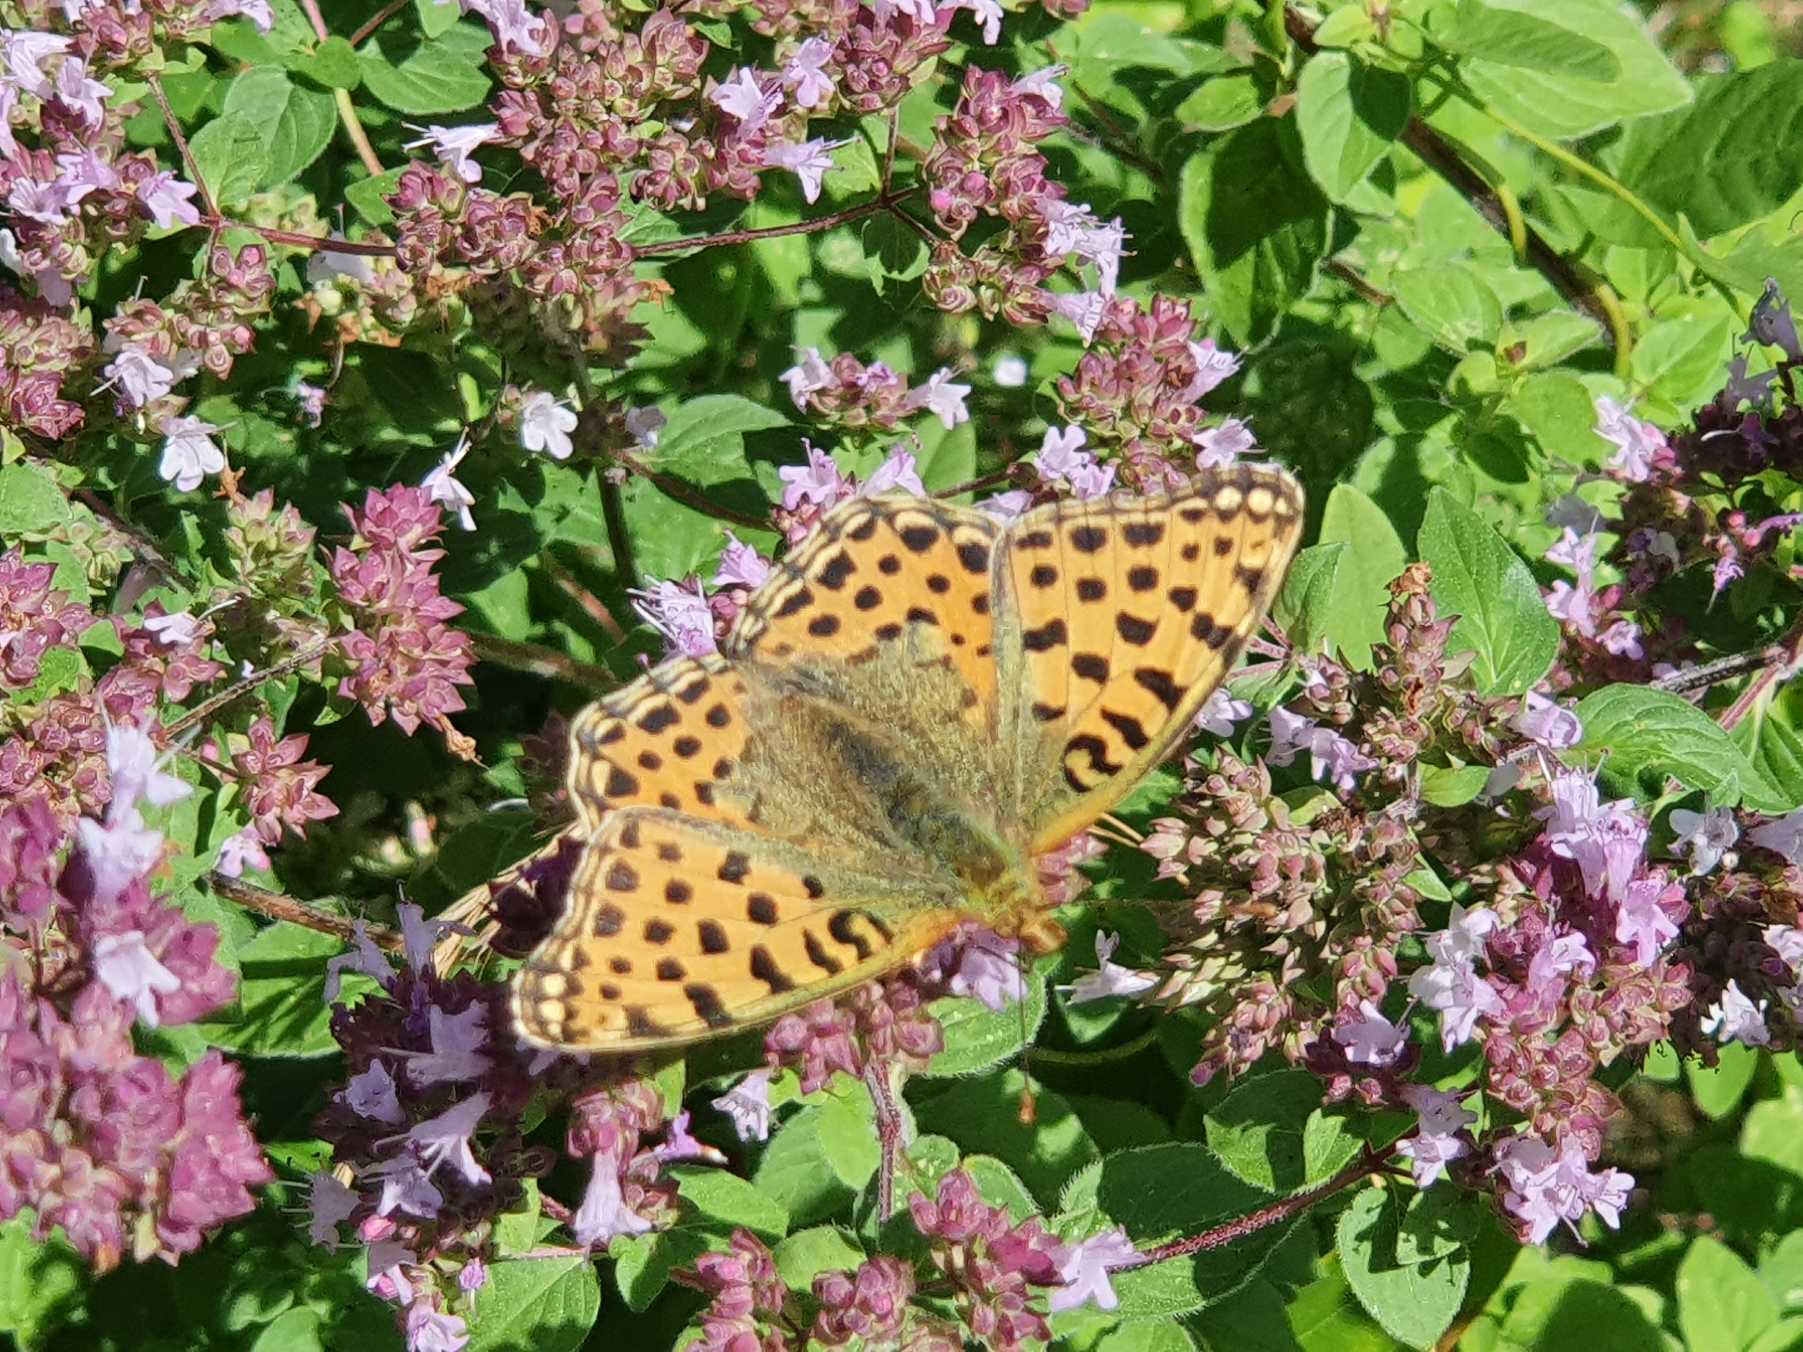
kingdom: Animalia
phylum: Arthropoda
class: Insecta
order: Lepidoptera
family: Nymphalidae
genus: Issoria
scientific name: Issoria lathonia
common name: Storplettet perlemorsommerfugl
